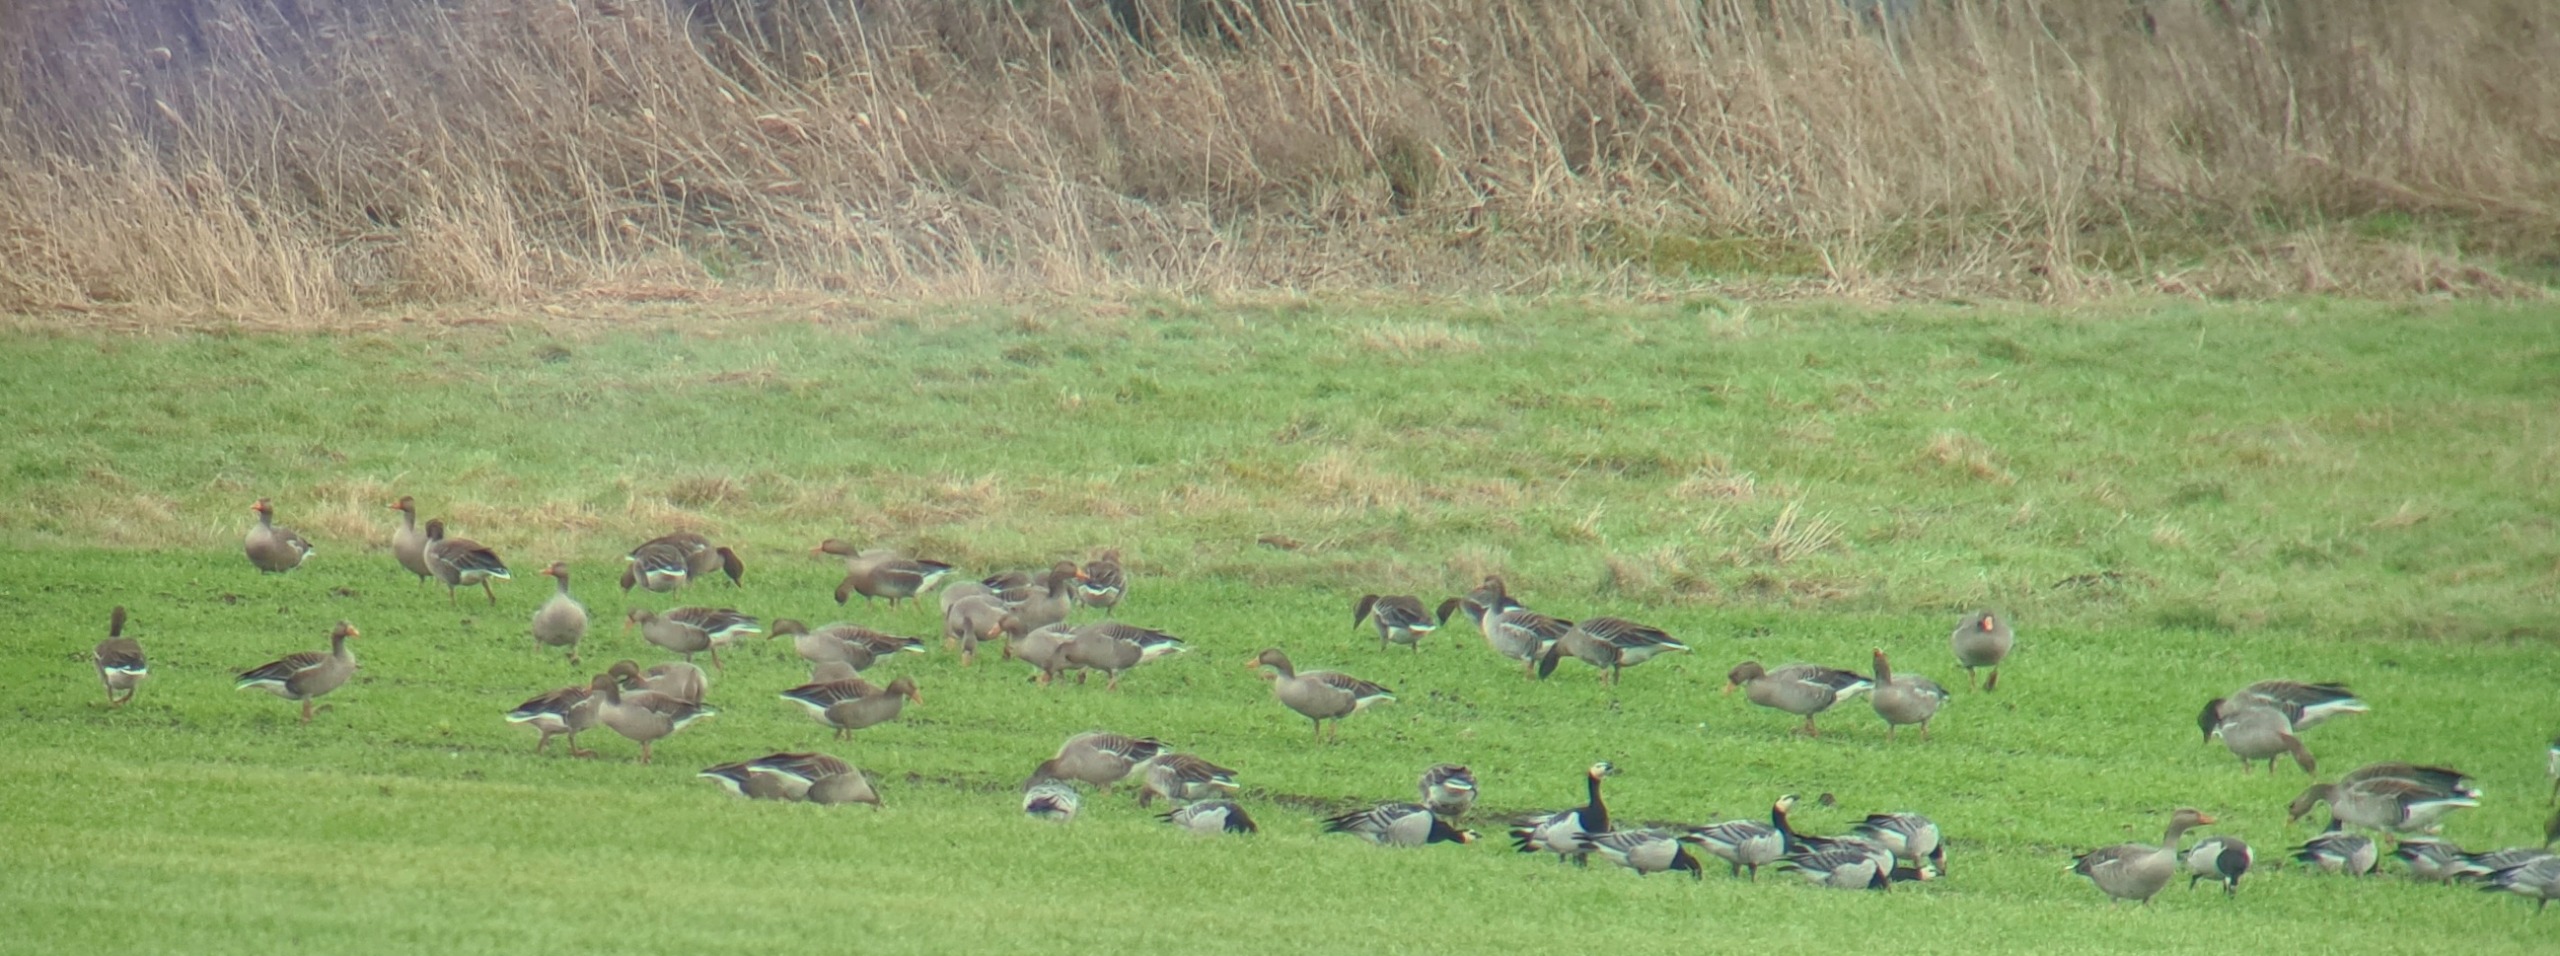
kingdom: Animalia
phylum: Chordata
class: Aves
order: Anseriformes
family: Anatidae
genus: Anser
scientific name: Anser anser
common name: Grågås
